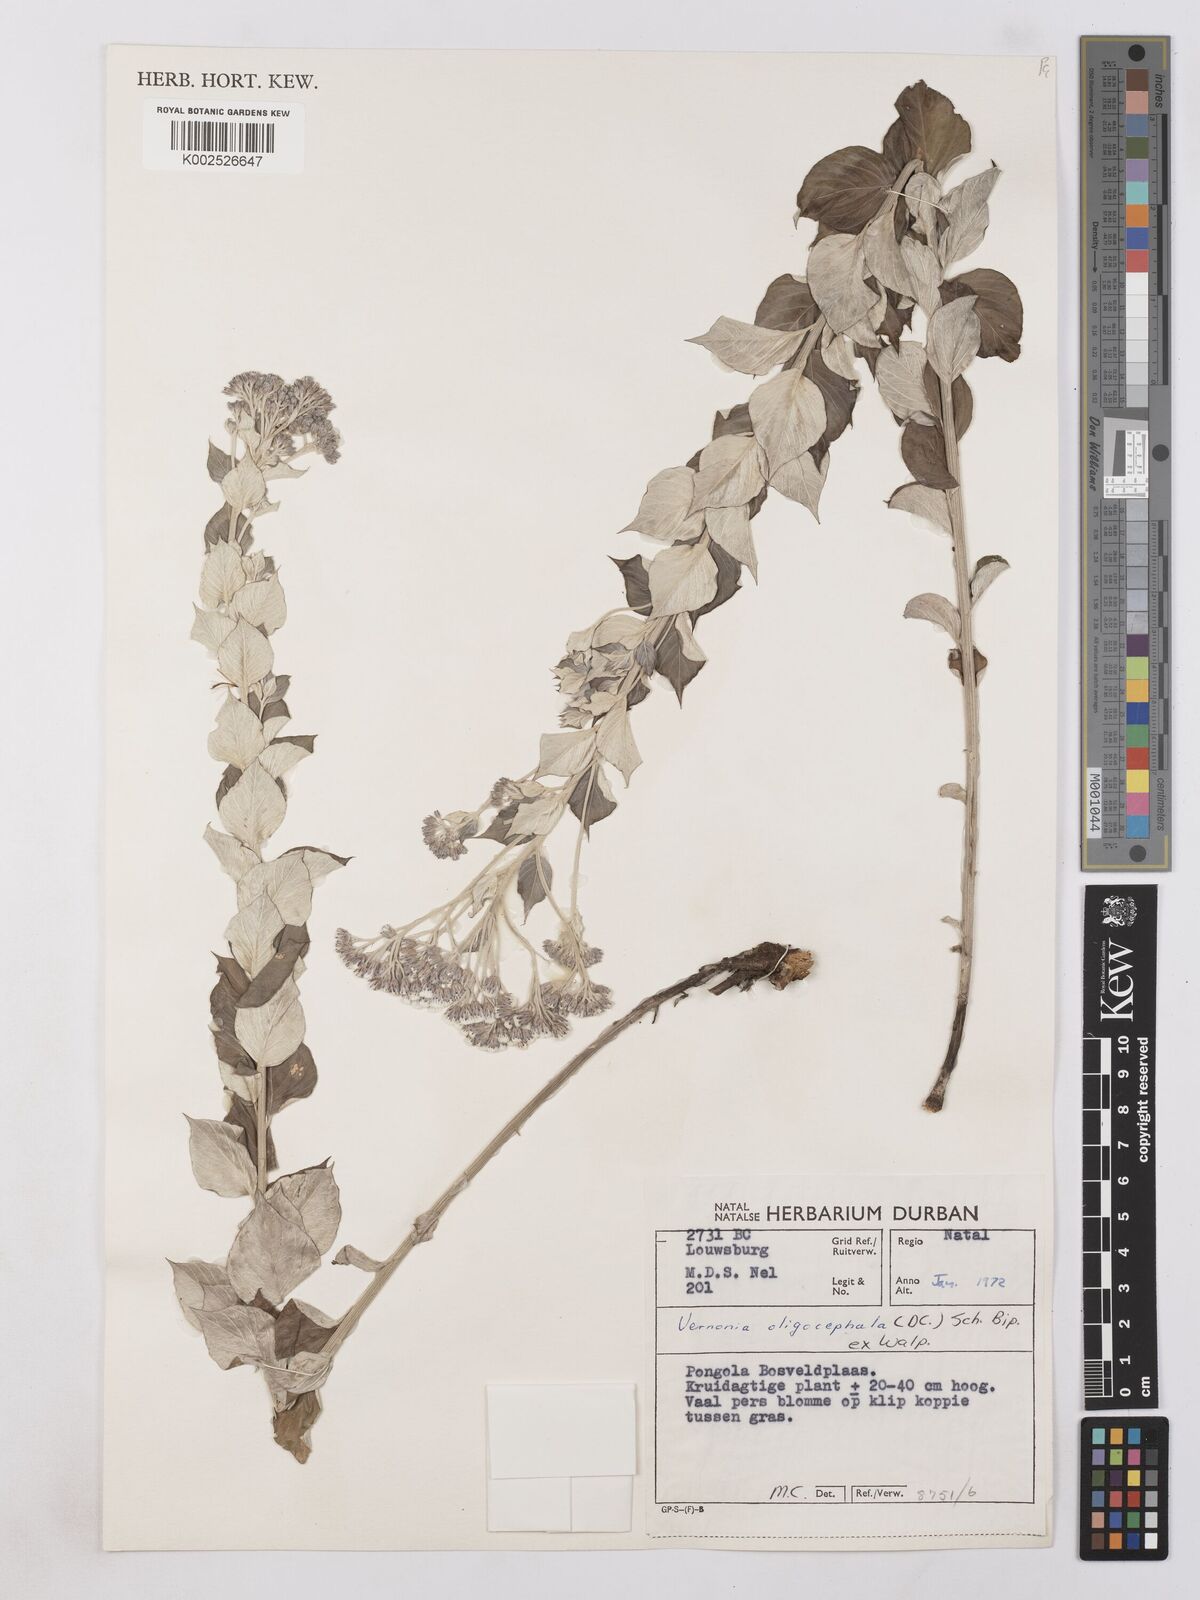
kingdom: Plantae
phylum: Tracheophyta
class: Magnoliopsida
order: Asterales
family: Asteraceae
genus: Hilliardiella
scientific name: Hilliardiella oligocephala
